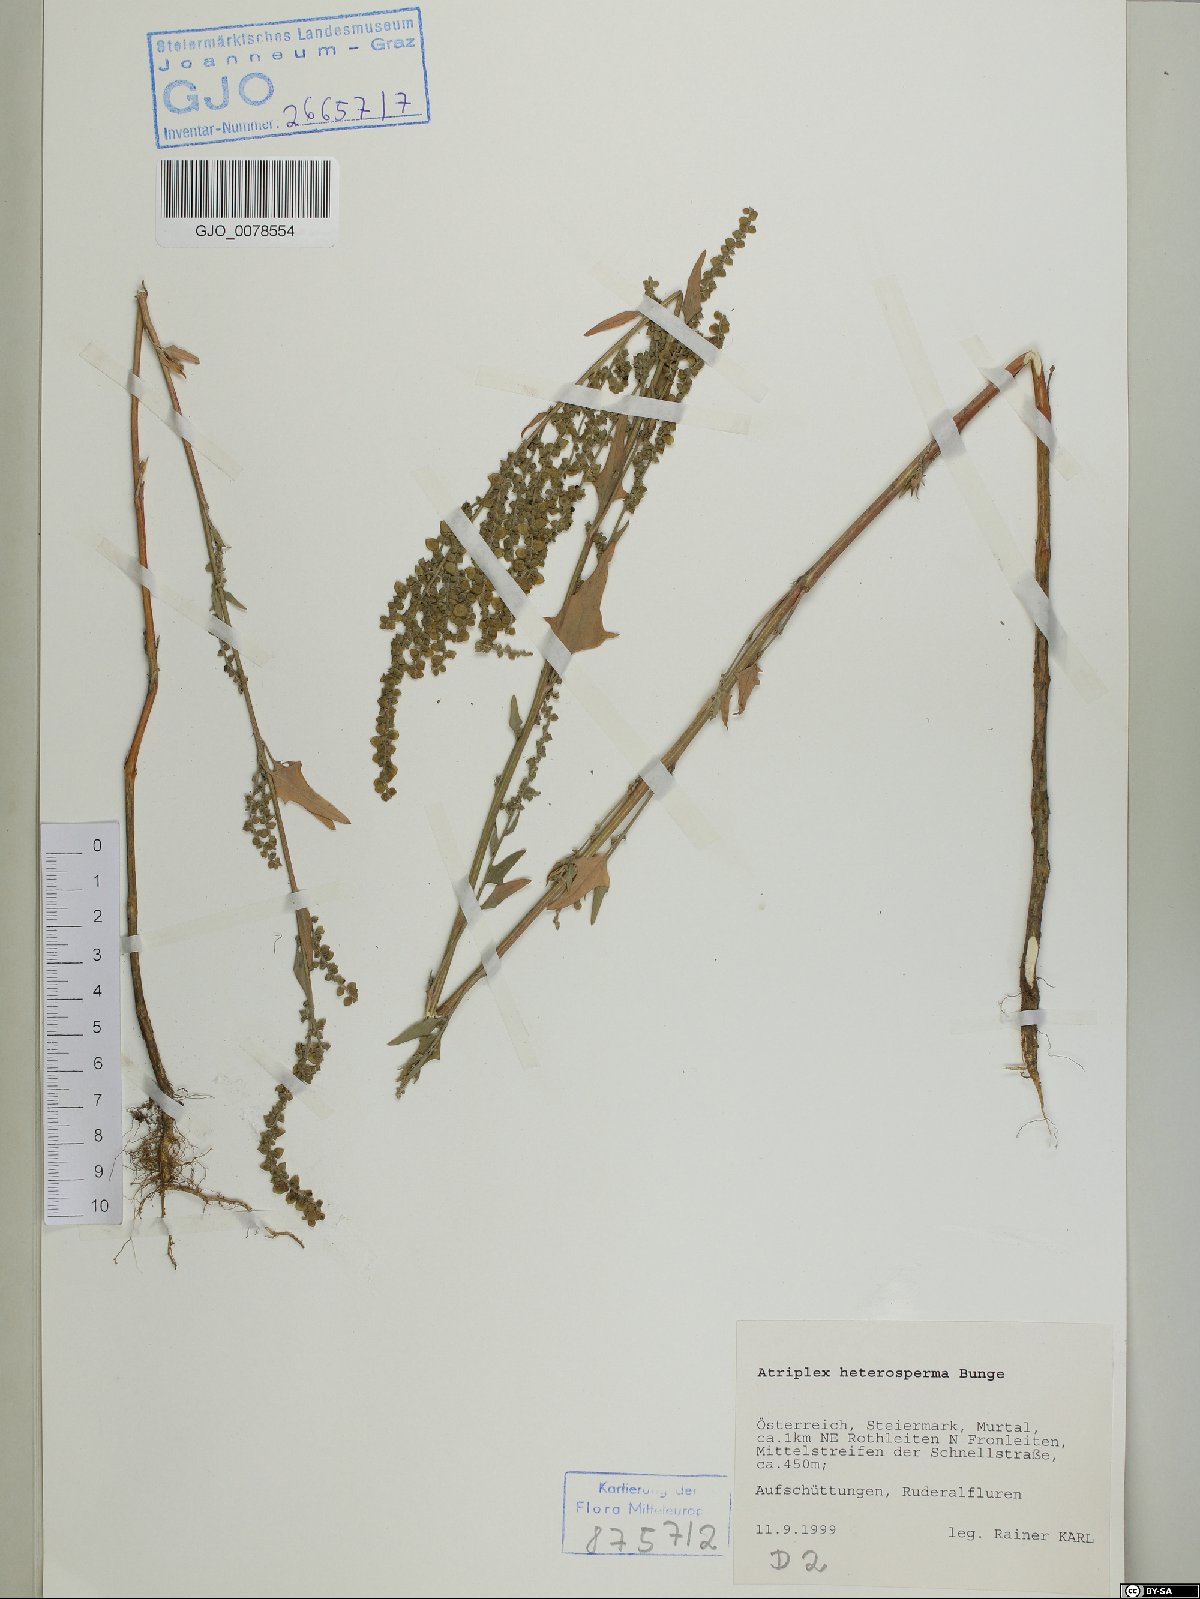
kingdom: Plantae
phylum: Tracheophyta
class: Magnoliopsida
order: Caryophyllales
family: Amaranthaceae
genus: Atriplex
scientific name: Atriplex micrantha
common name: Twoscale saltbush
